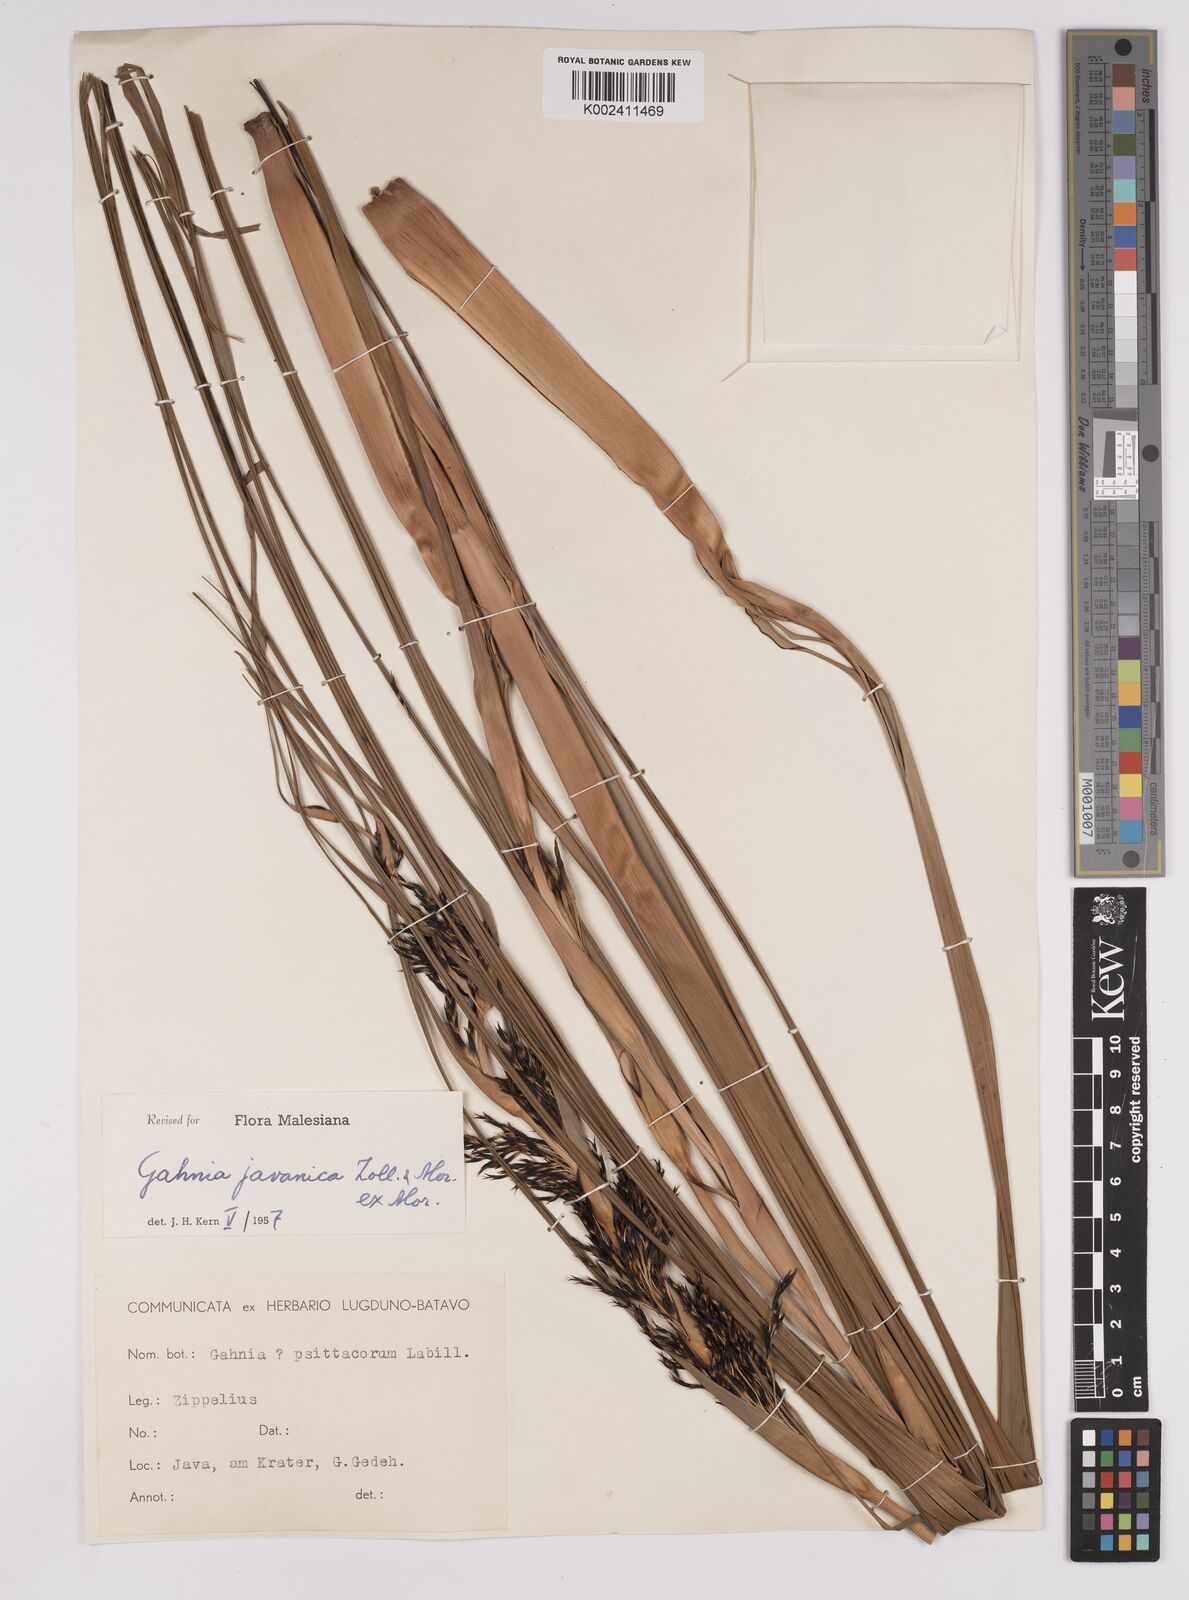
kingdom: Plantae
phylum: Tracheophyta
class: Liliopsida
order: Poales
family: Cyperaceae
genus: Gahnia
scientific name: Gahnia javanica
